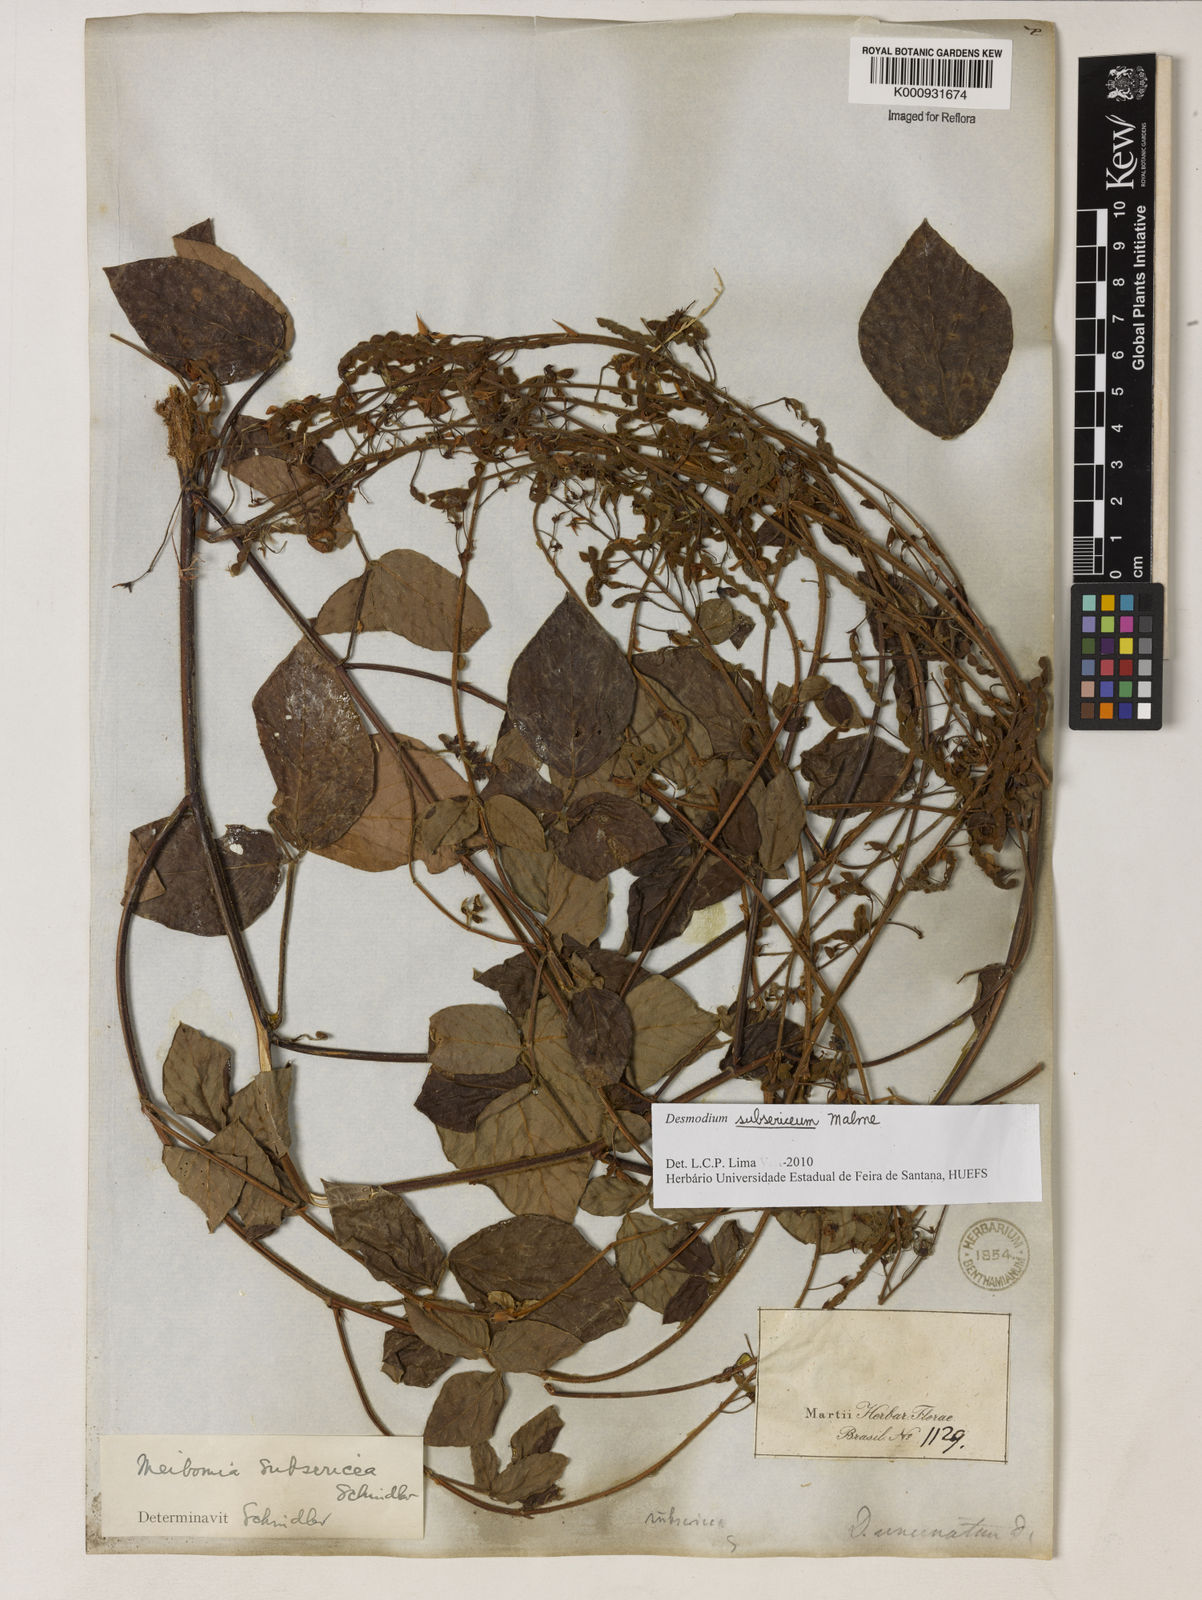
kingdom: Plantae
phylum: Tracheophyta
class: Magnoliopsida
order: Fabales
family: Fabaceae
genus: Desmodium
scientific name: Desmodium subsericeum
